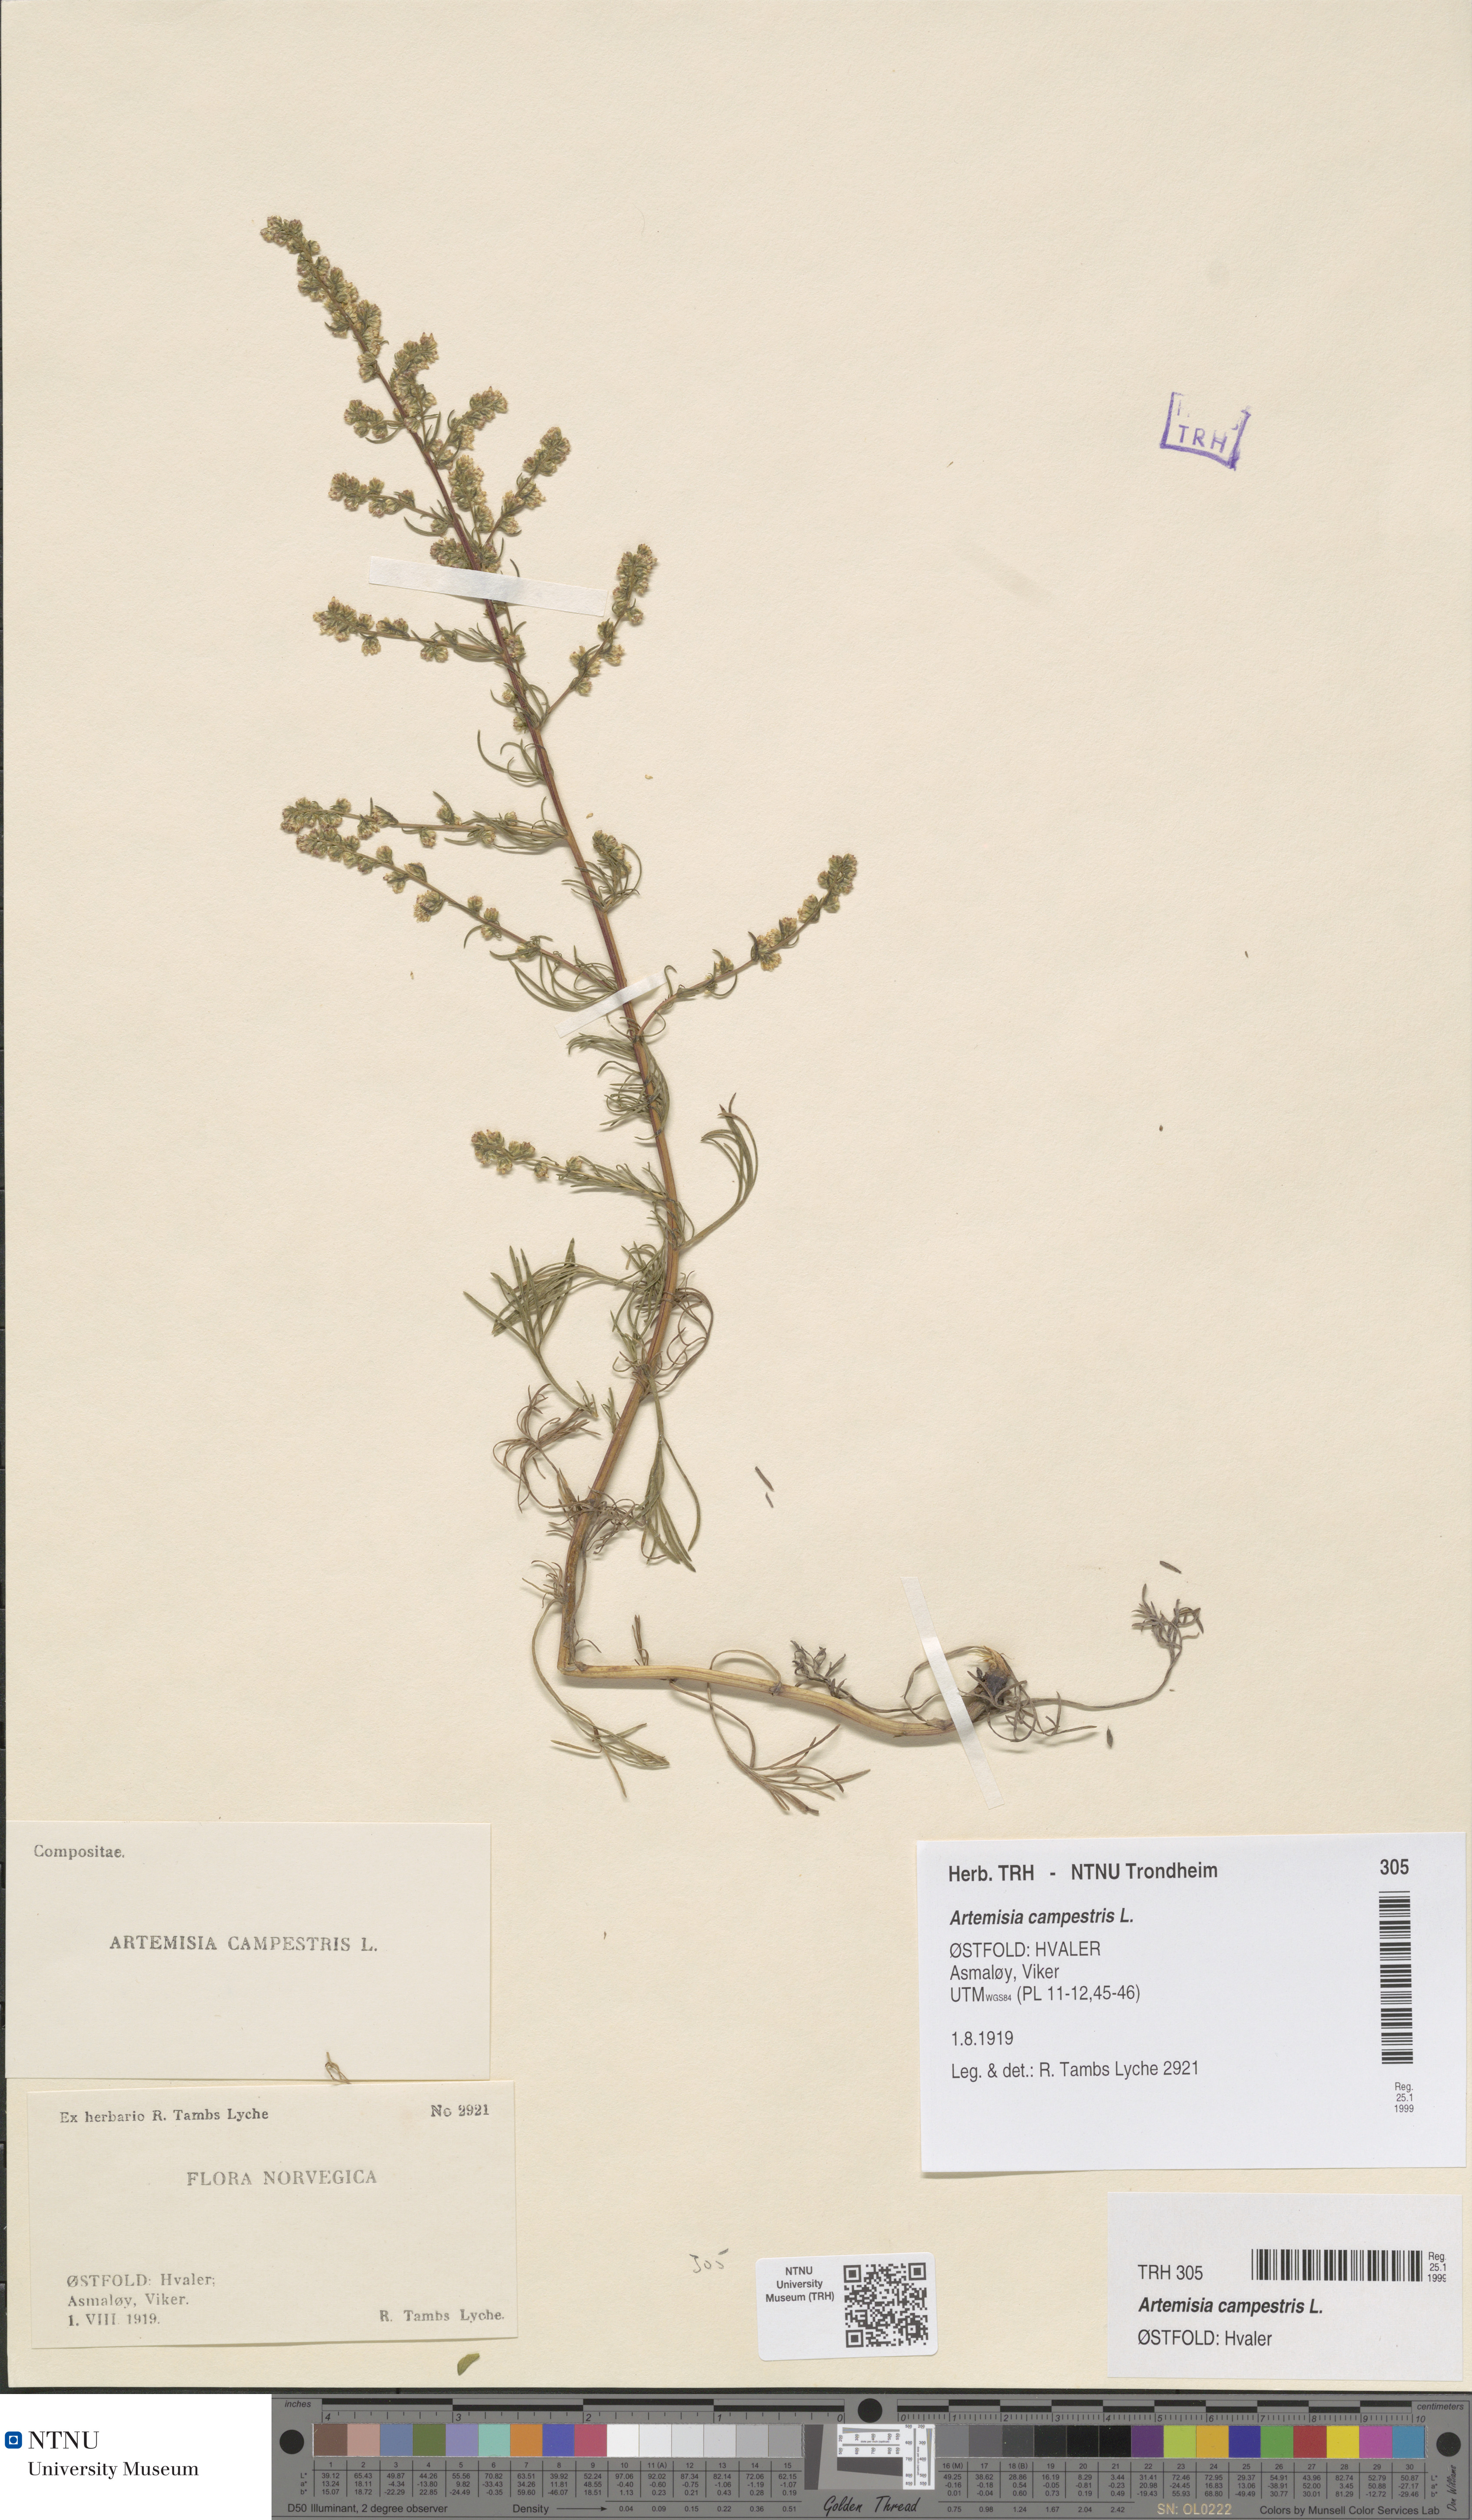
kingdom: Plantae
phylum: Tracheophyta
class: Magnoliopsida
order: Asterales
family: Asteraceae
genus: Artemisia
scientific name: Artemisia campestris
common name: Field wormwood
